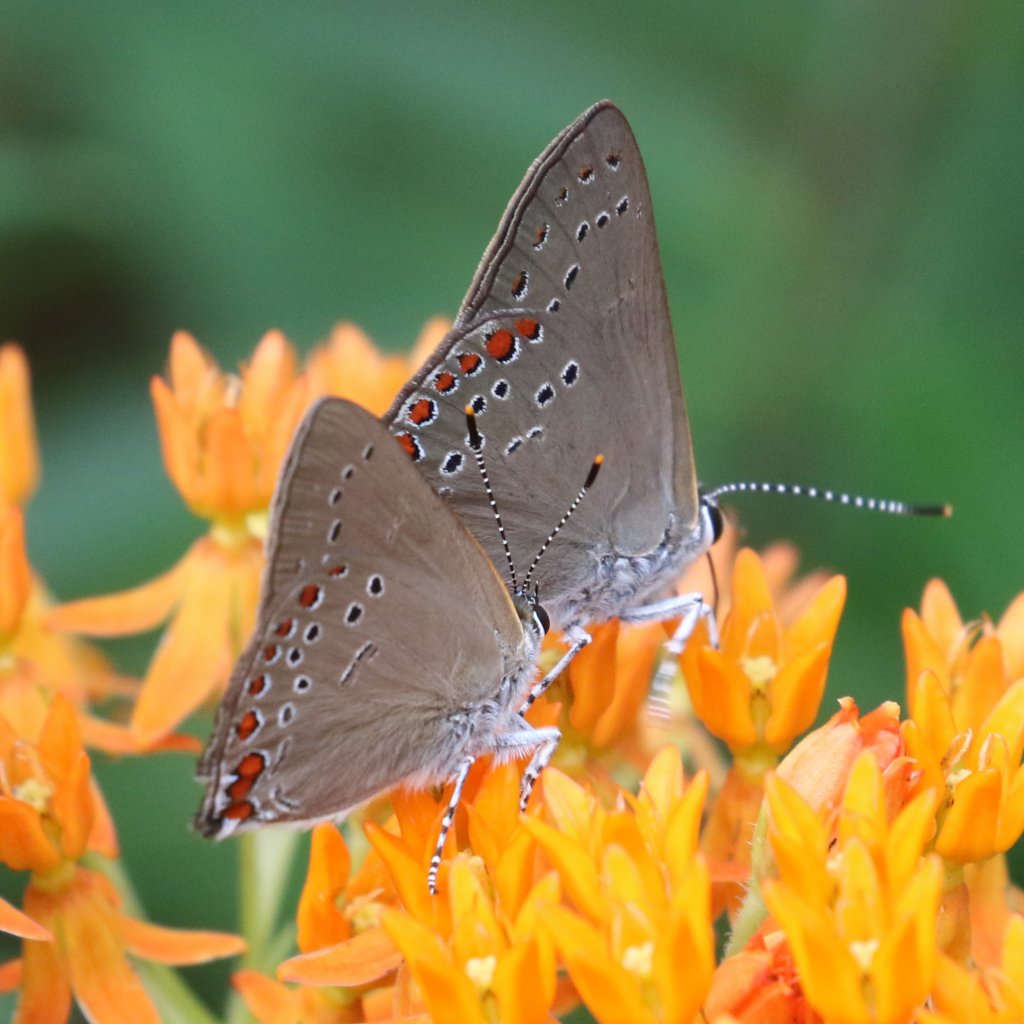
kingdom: Animalia
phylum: Arthropoda
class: Insecta
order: Lepidoptera
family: Lycaenidae
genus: Harkenclenus
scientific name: Harkenclenus titus
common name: Coral Hairstreak
